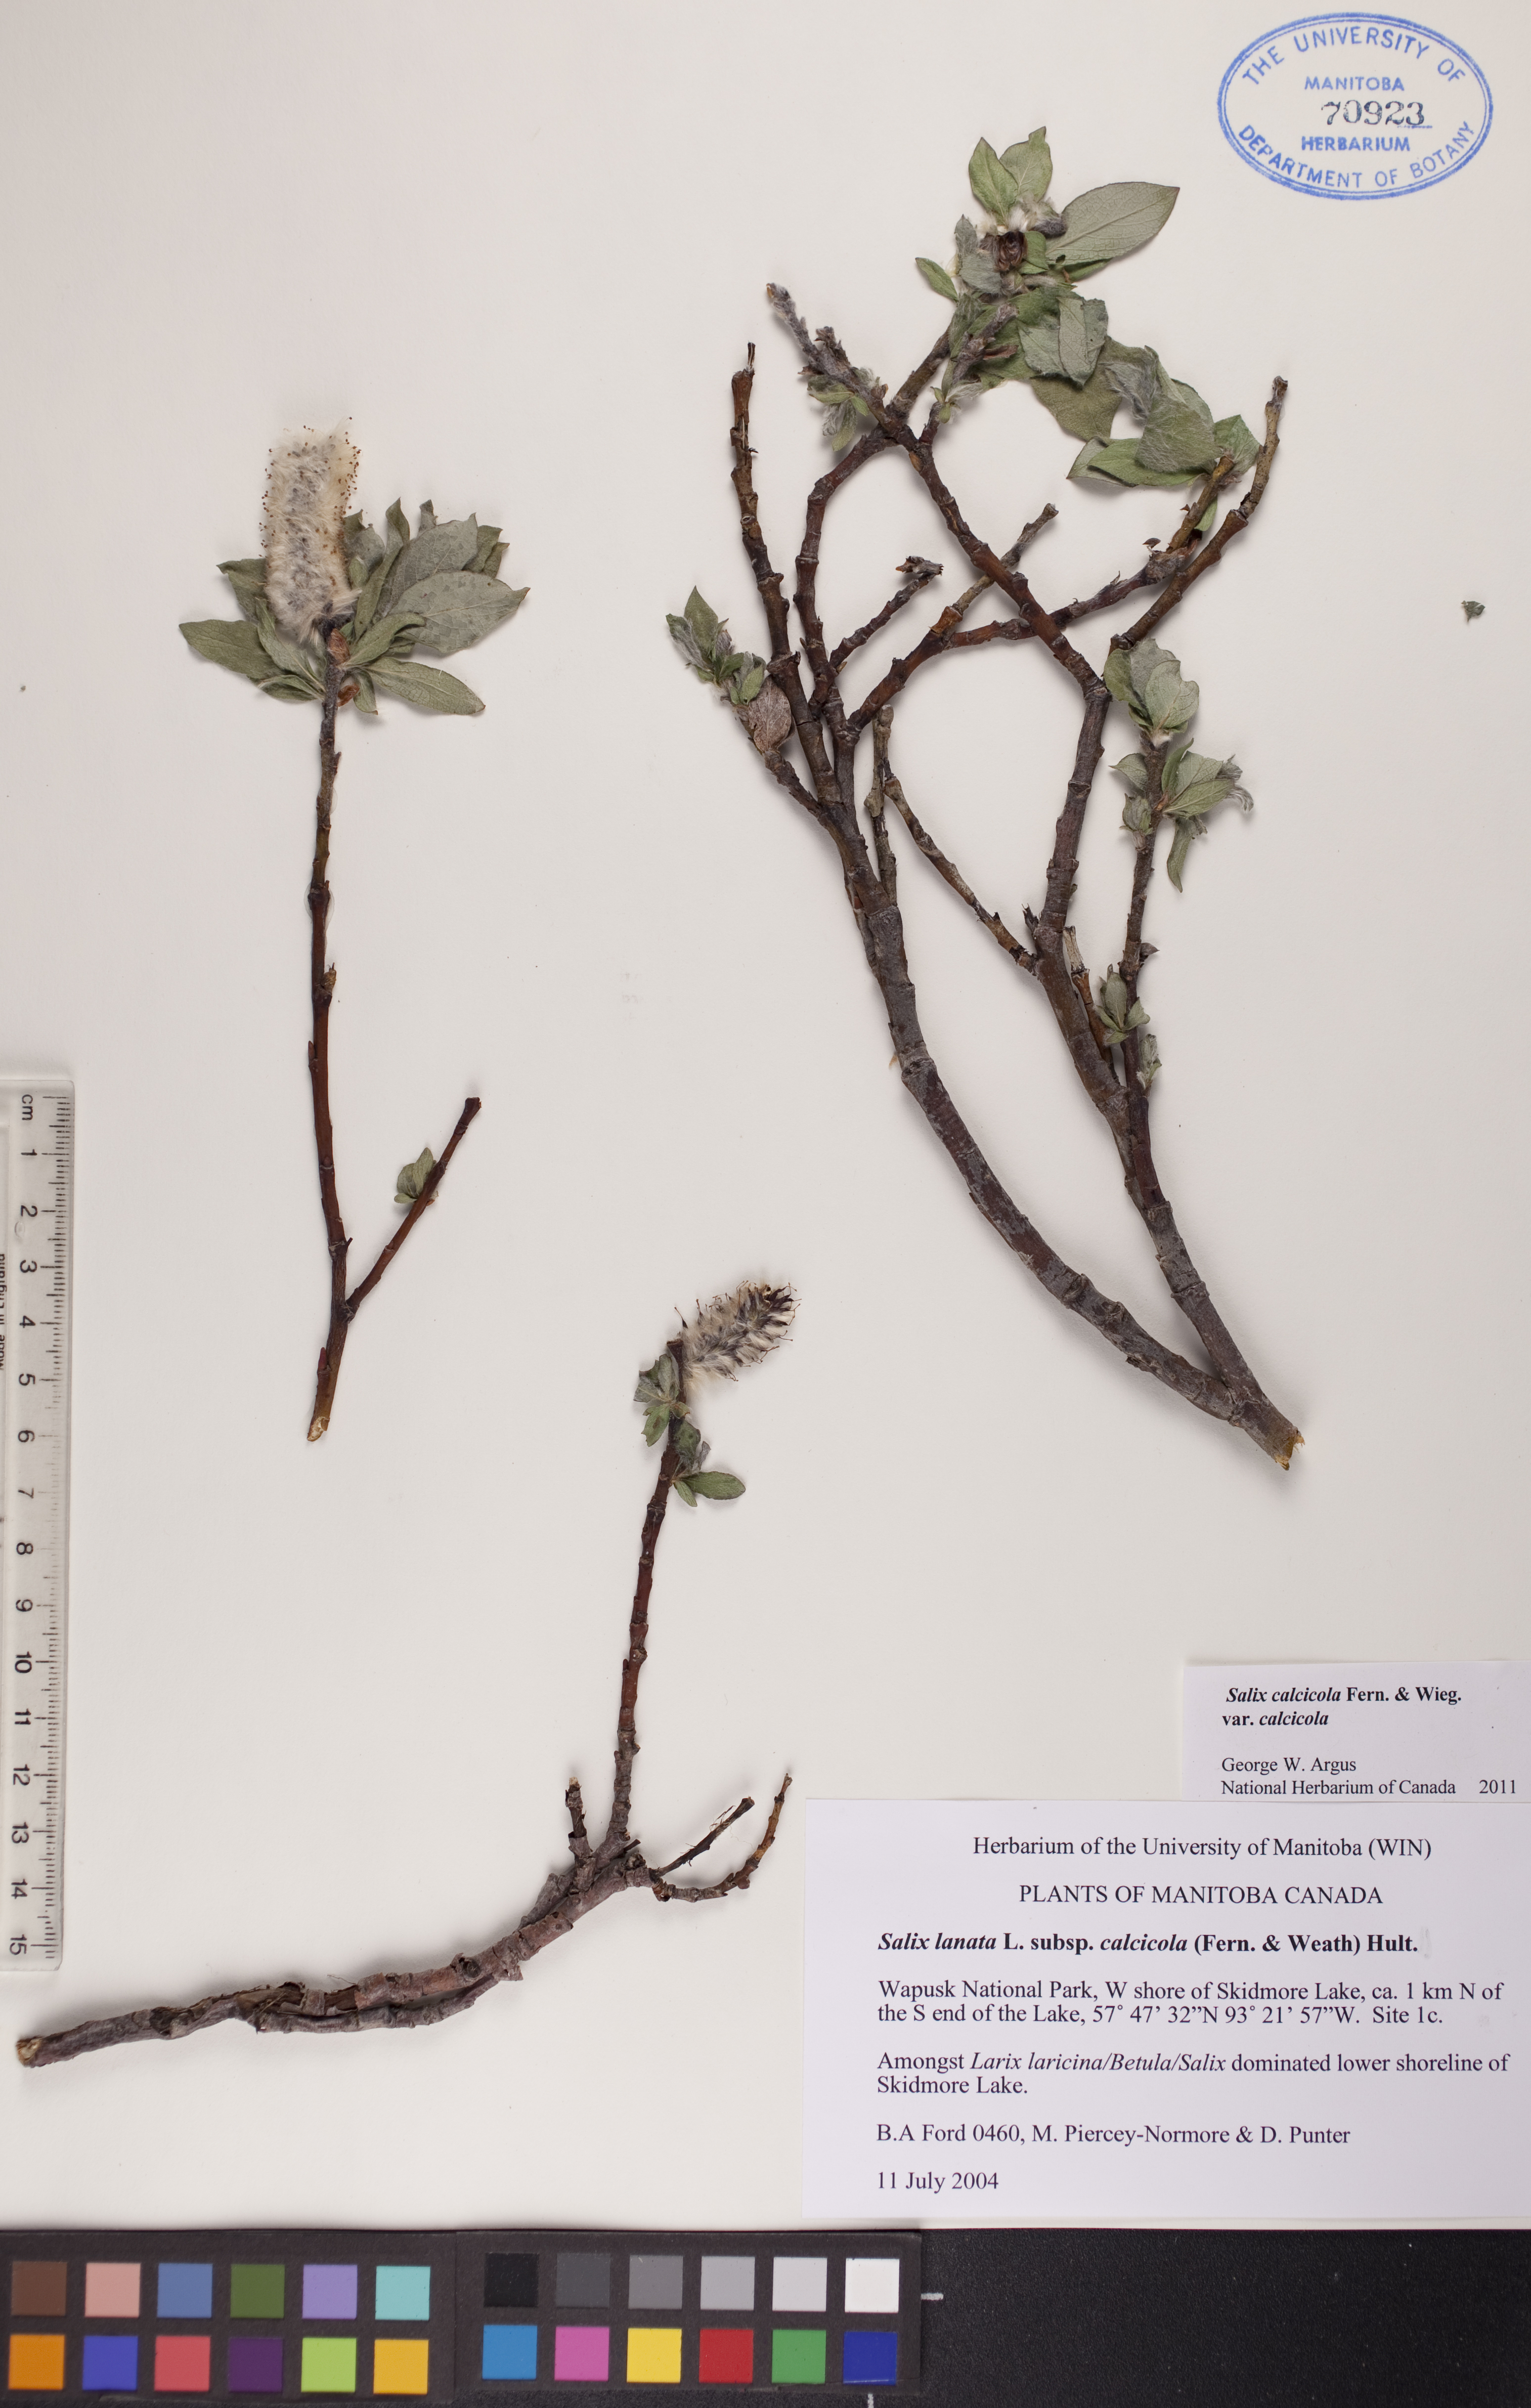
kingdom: Plantae
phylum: Tracheophyta
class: Magnoliopsida
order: Malpighiales
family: Salicaceae
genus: Salix
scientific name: Salix calcicola
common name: Calcareous willow
